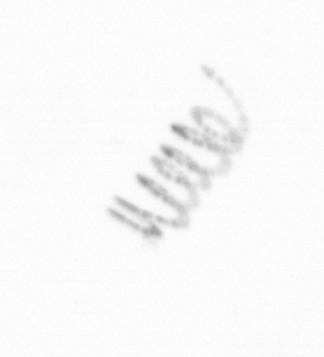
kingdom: Chromista
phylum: Ochrophyta
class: Bacillariophyceae
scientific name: Bacillariophyceae
